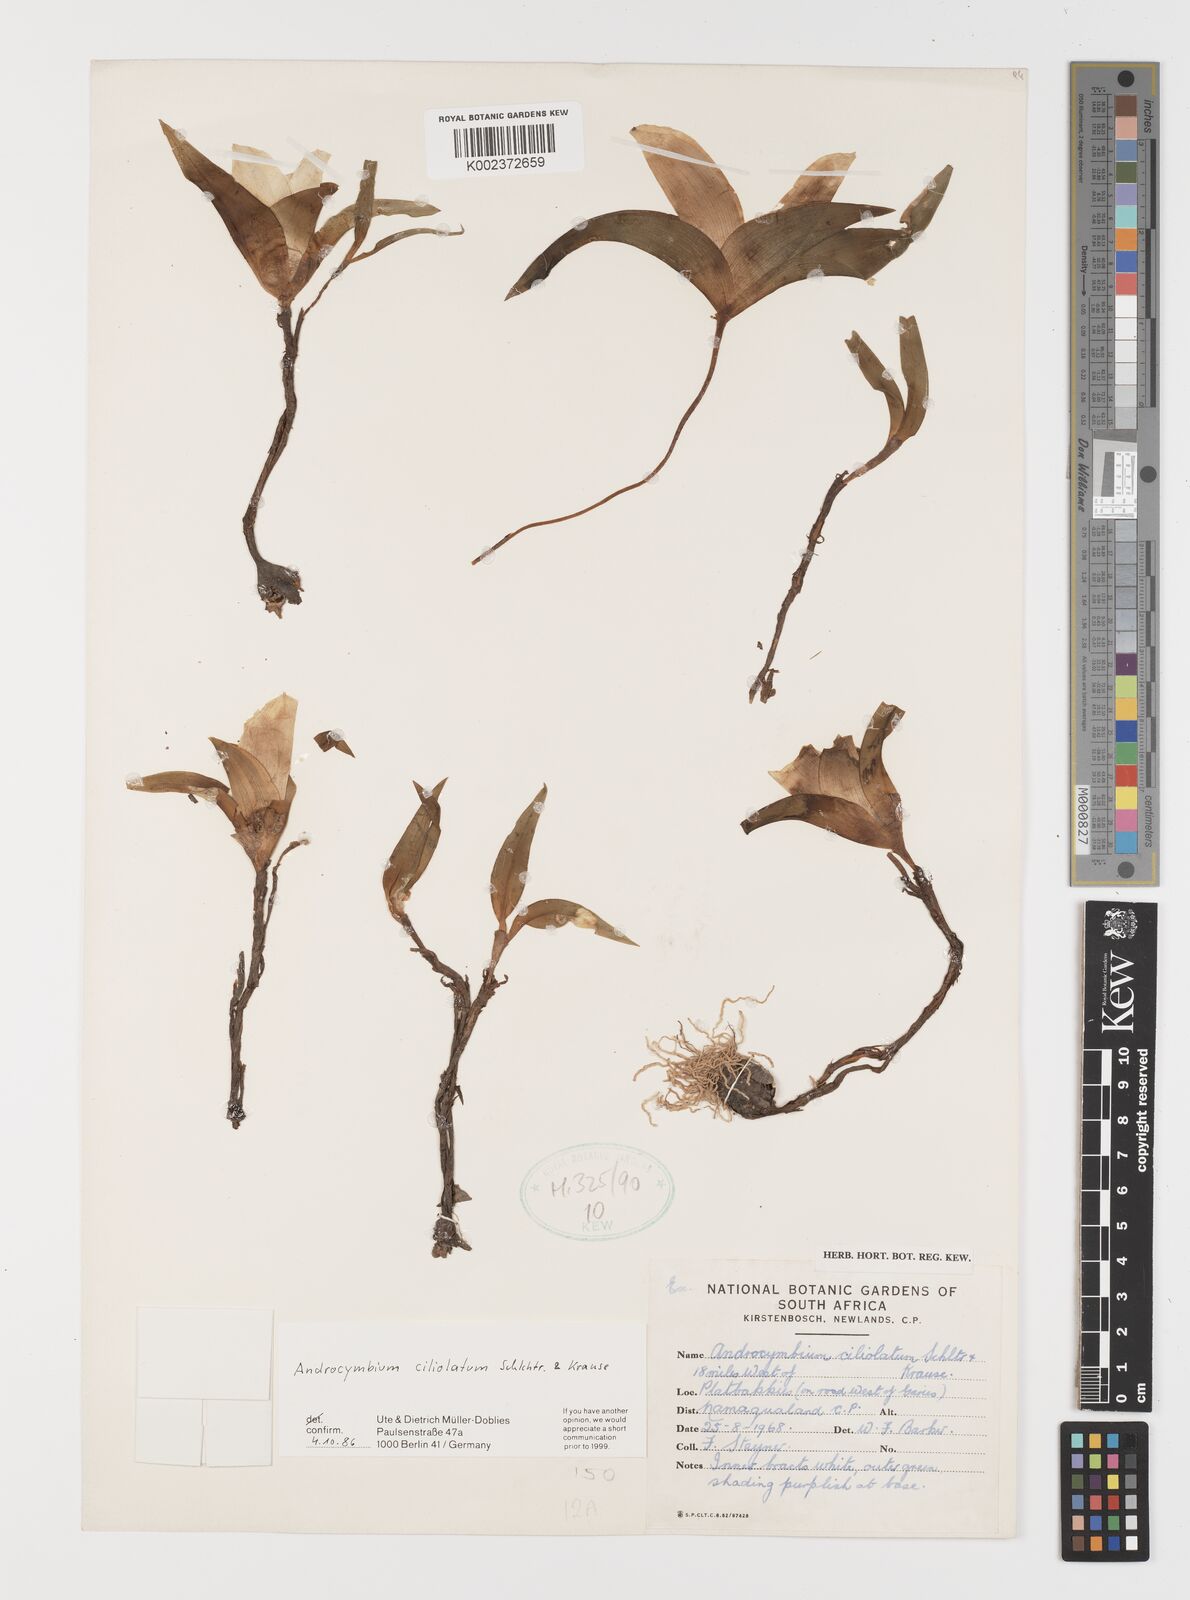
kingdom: Plantae
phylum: Tracheophyta
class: Liliopsida
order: Liliales
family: Colchicaceae
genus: Colchicum
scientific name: Colchicum capense
